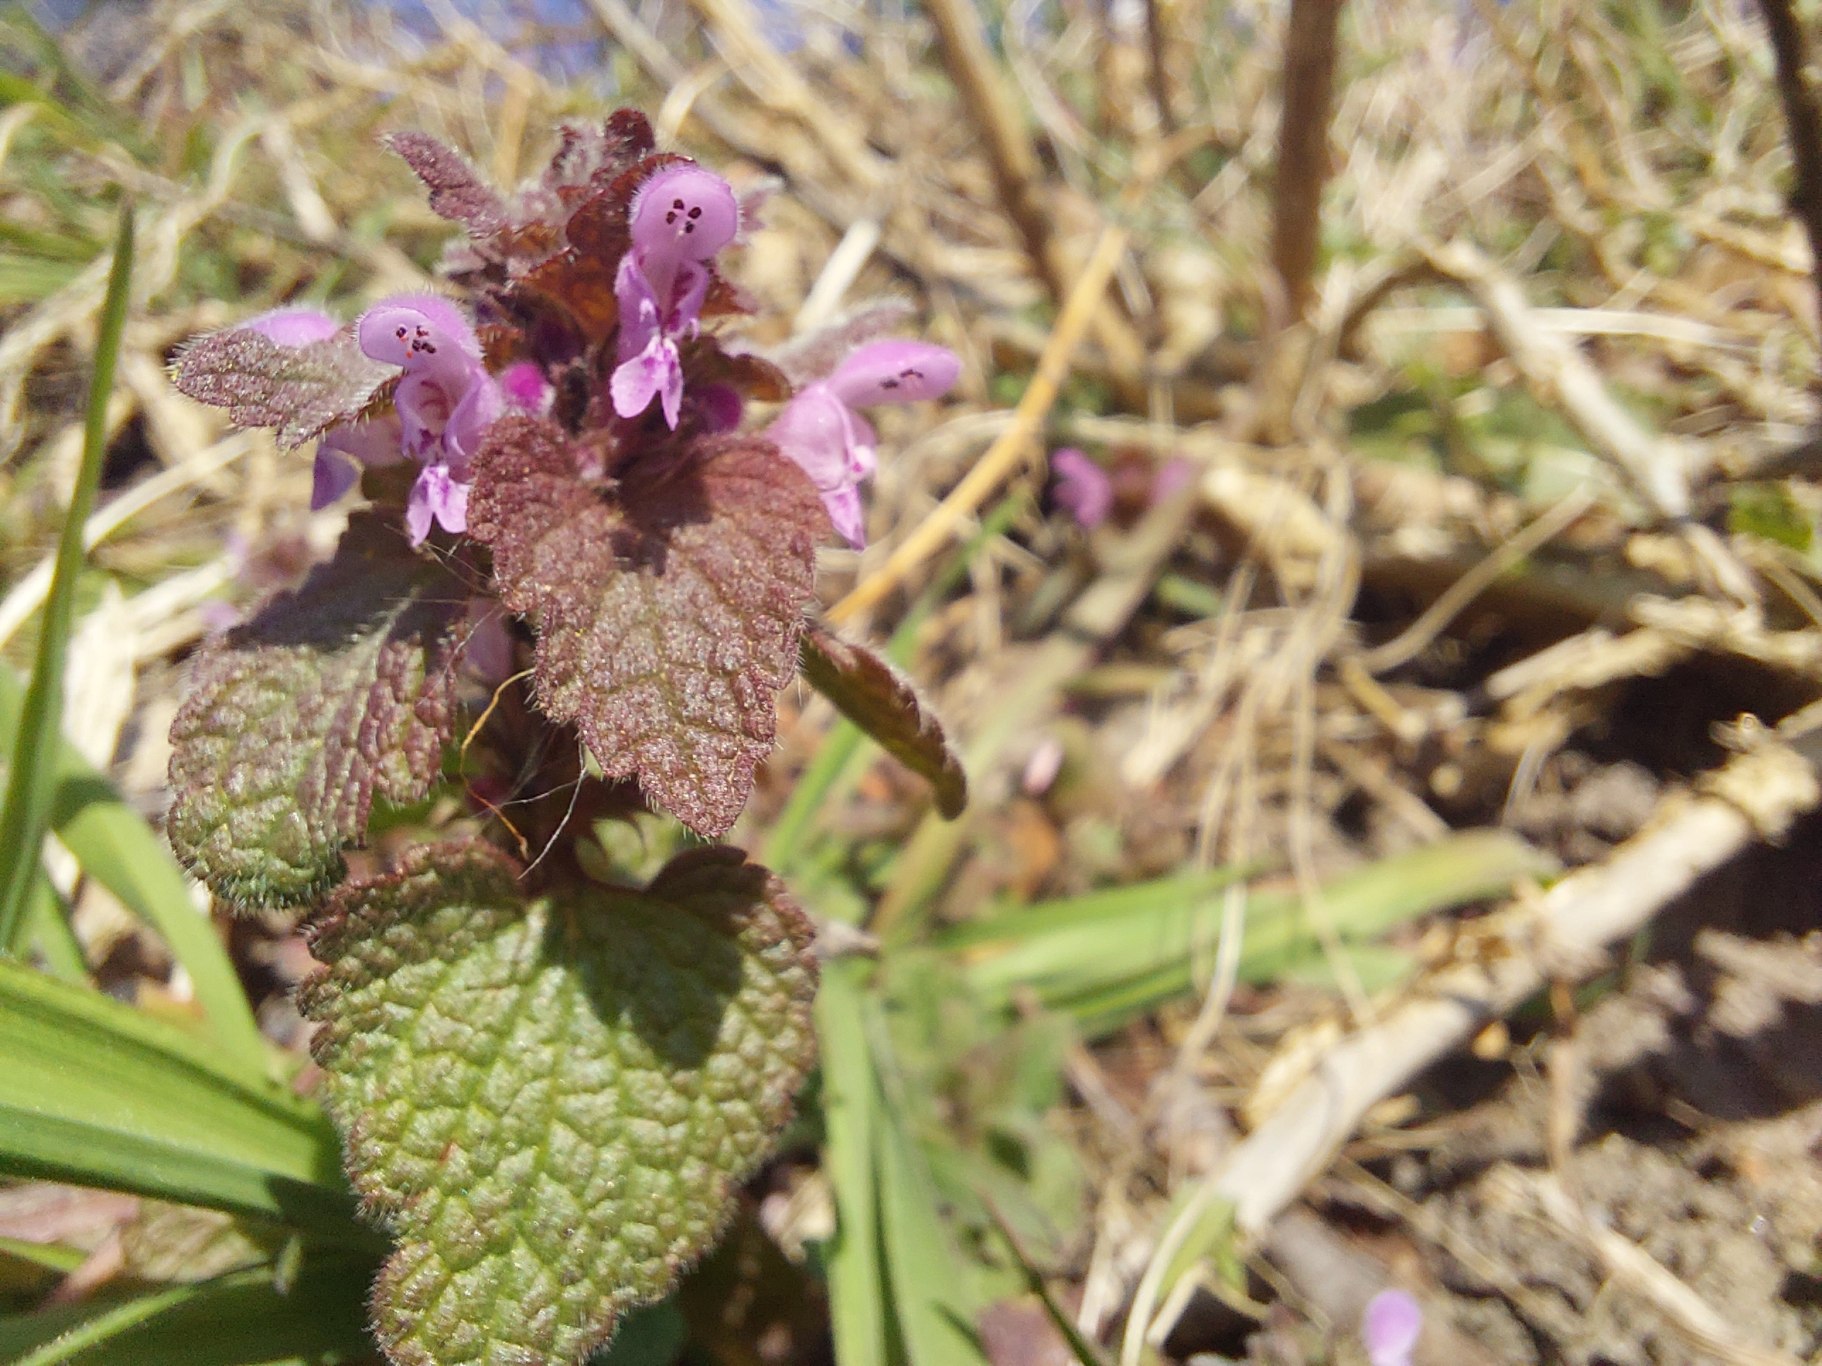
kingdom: Plantae
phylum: Tracheophyta
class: Magnoliopsida
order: Lamiales
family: Lamiaceae
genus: Lamium
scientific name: Lamium purpureum
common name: Rød tvetand
